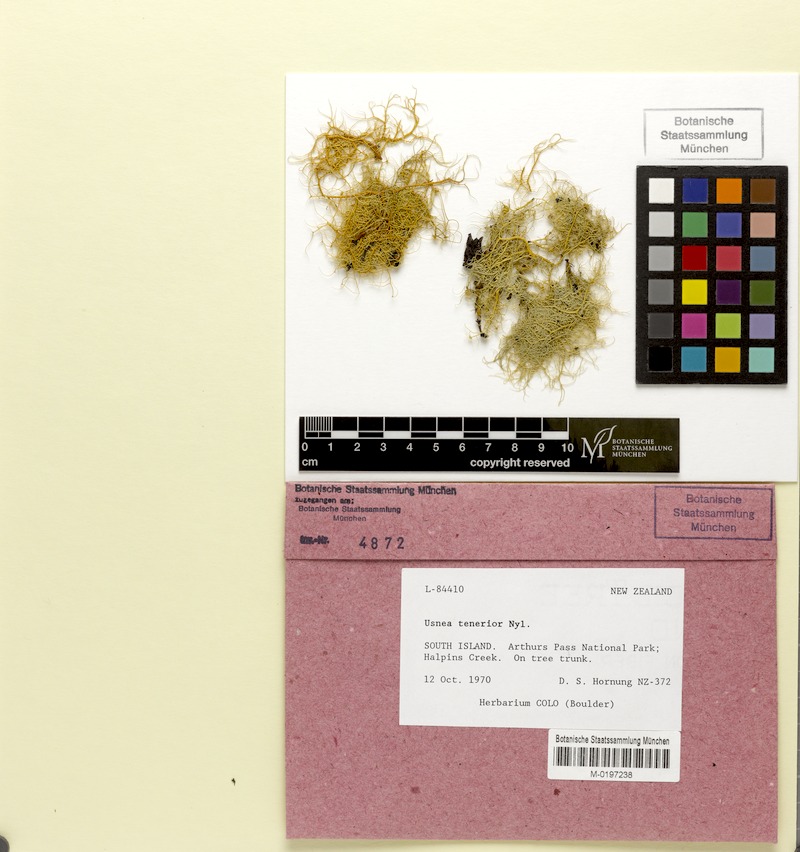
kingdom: Fungi
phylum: Ascomycota
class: Lecanoromycetes
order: Lecanorales
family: Parmeliaceae
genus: Usnea
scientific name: Usnea
